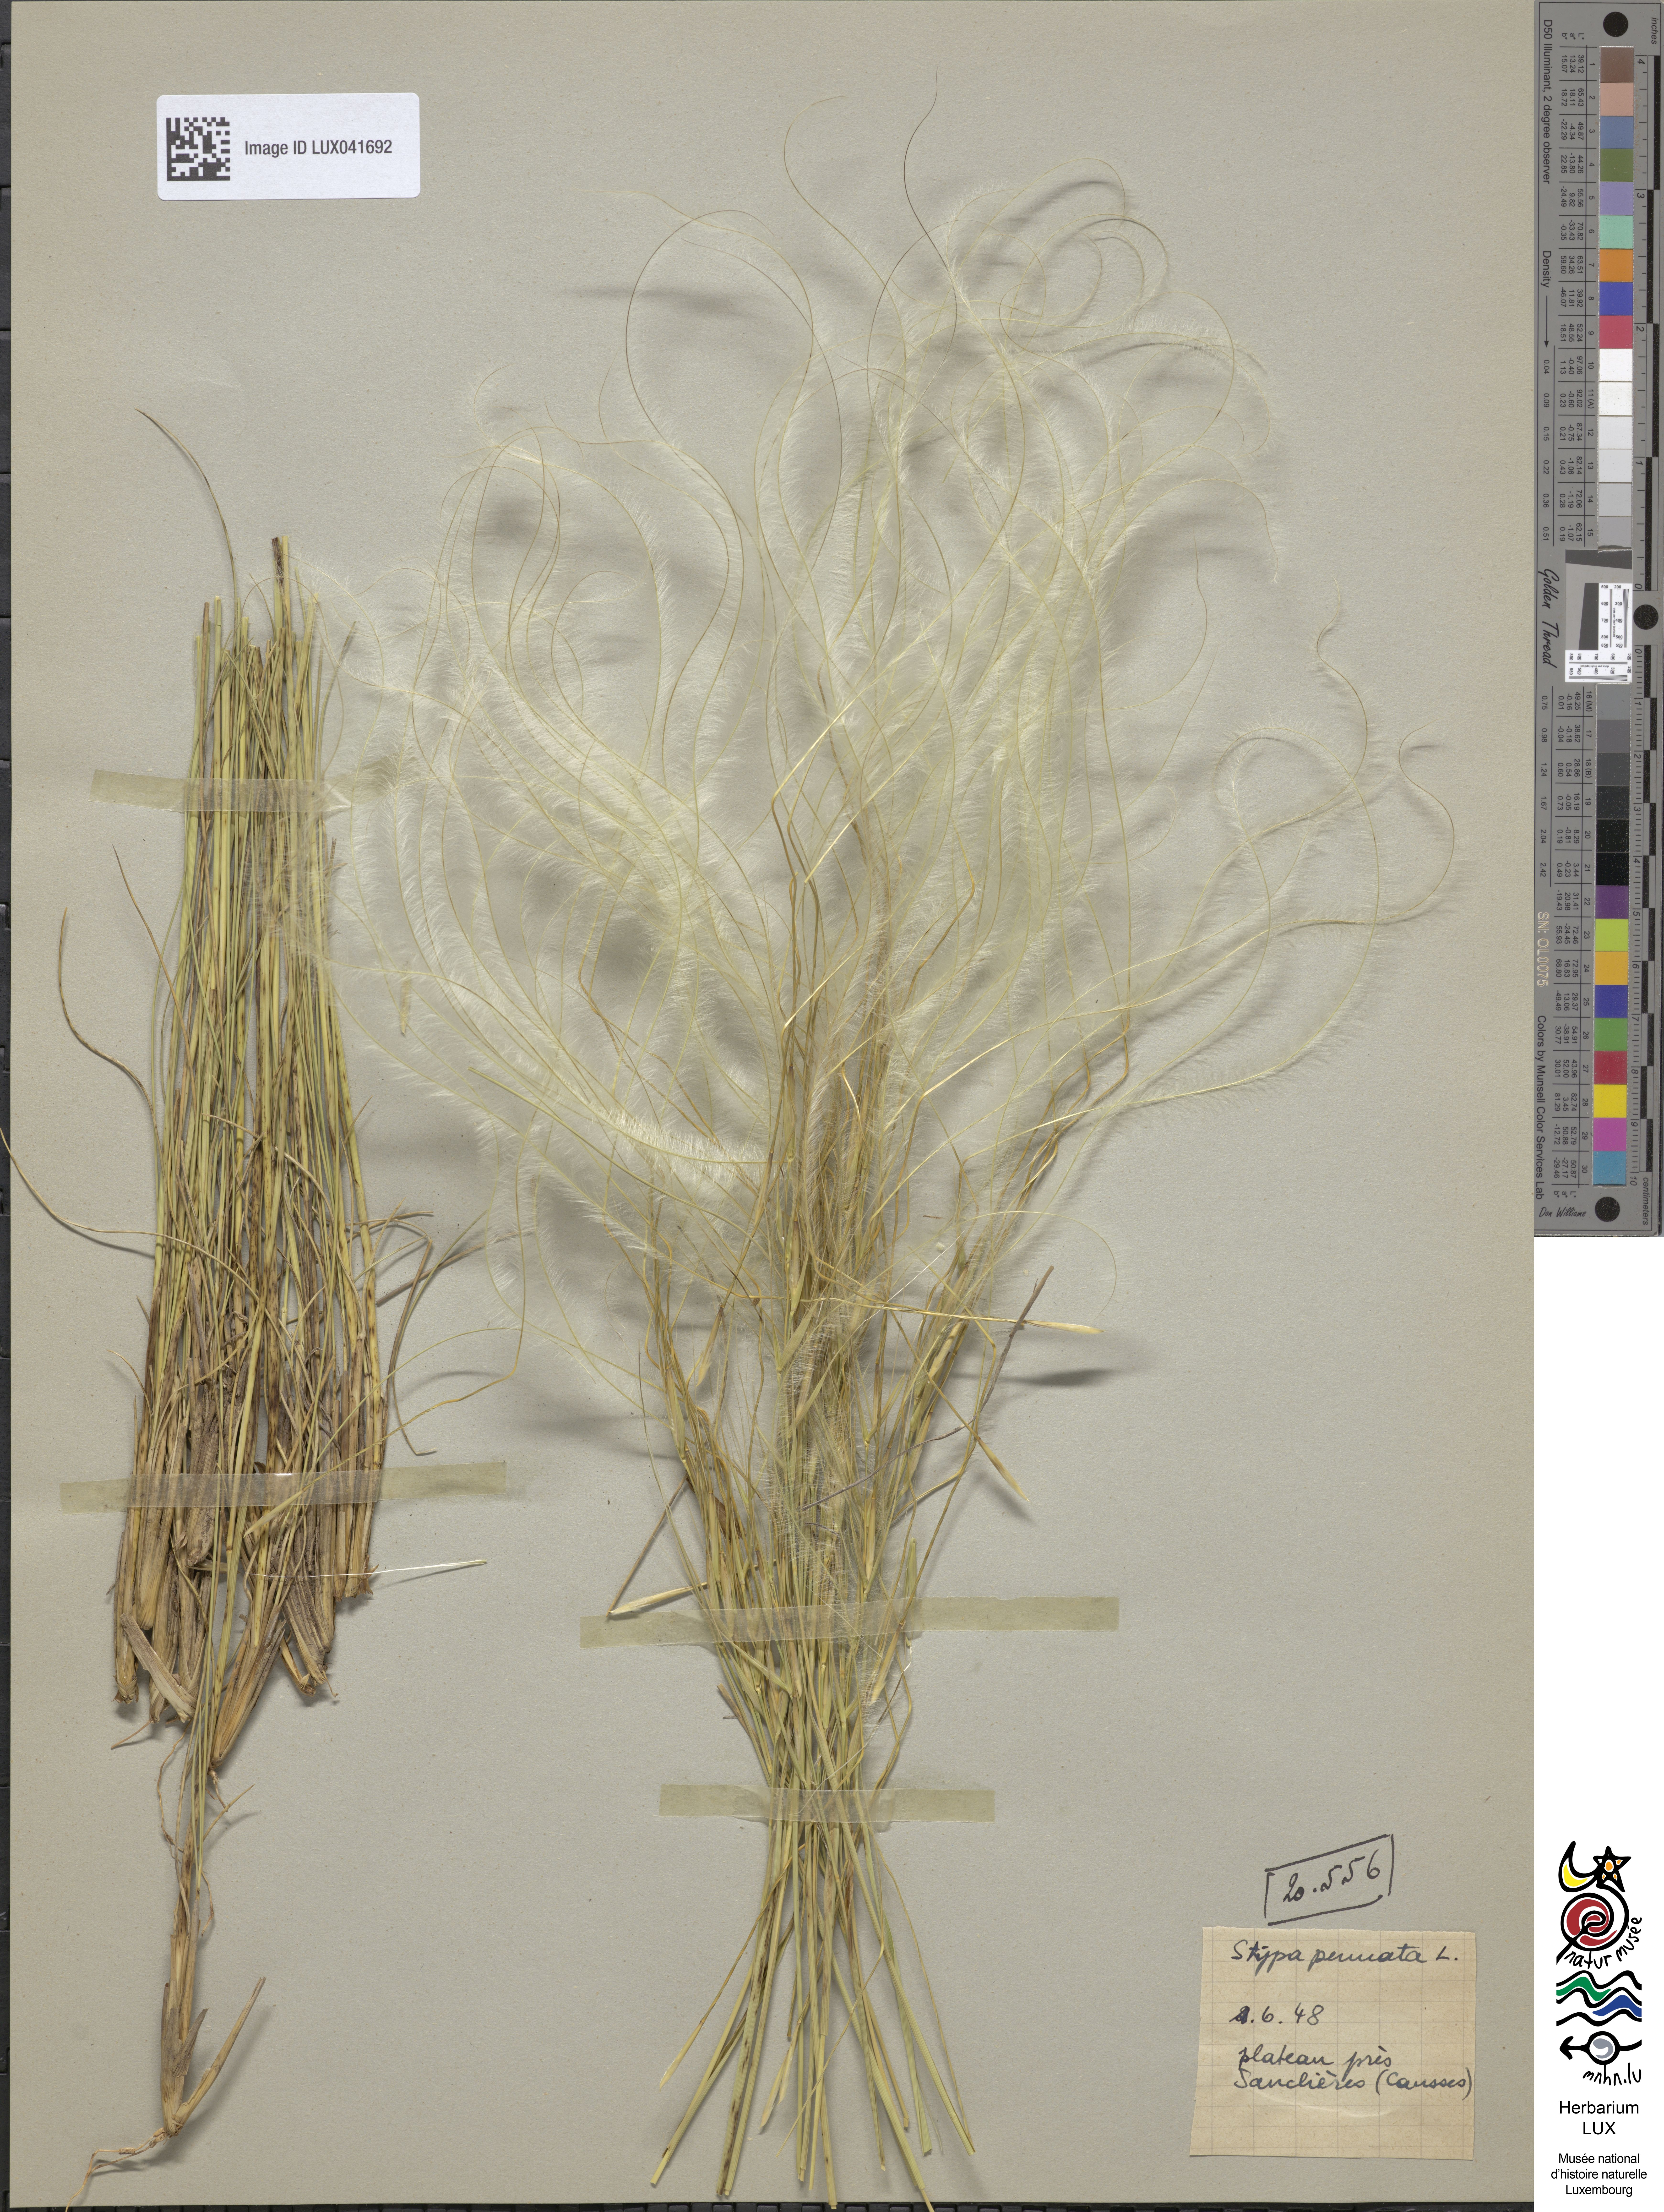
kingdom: Plantae
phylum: Tracheophyta
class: Liliopsida
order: Poales
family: Poaceae
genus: Stipa
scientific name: Stipa pennata
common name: European feather grass
